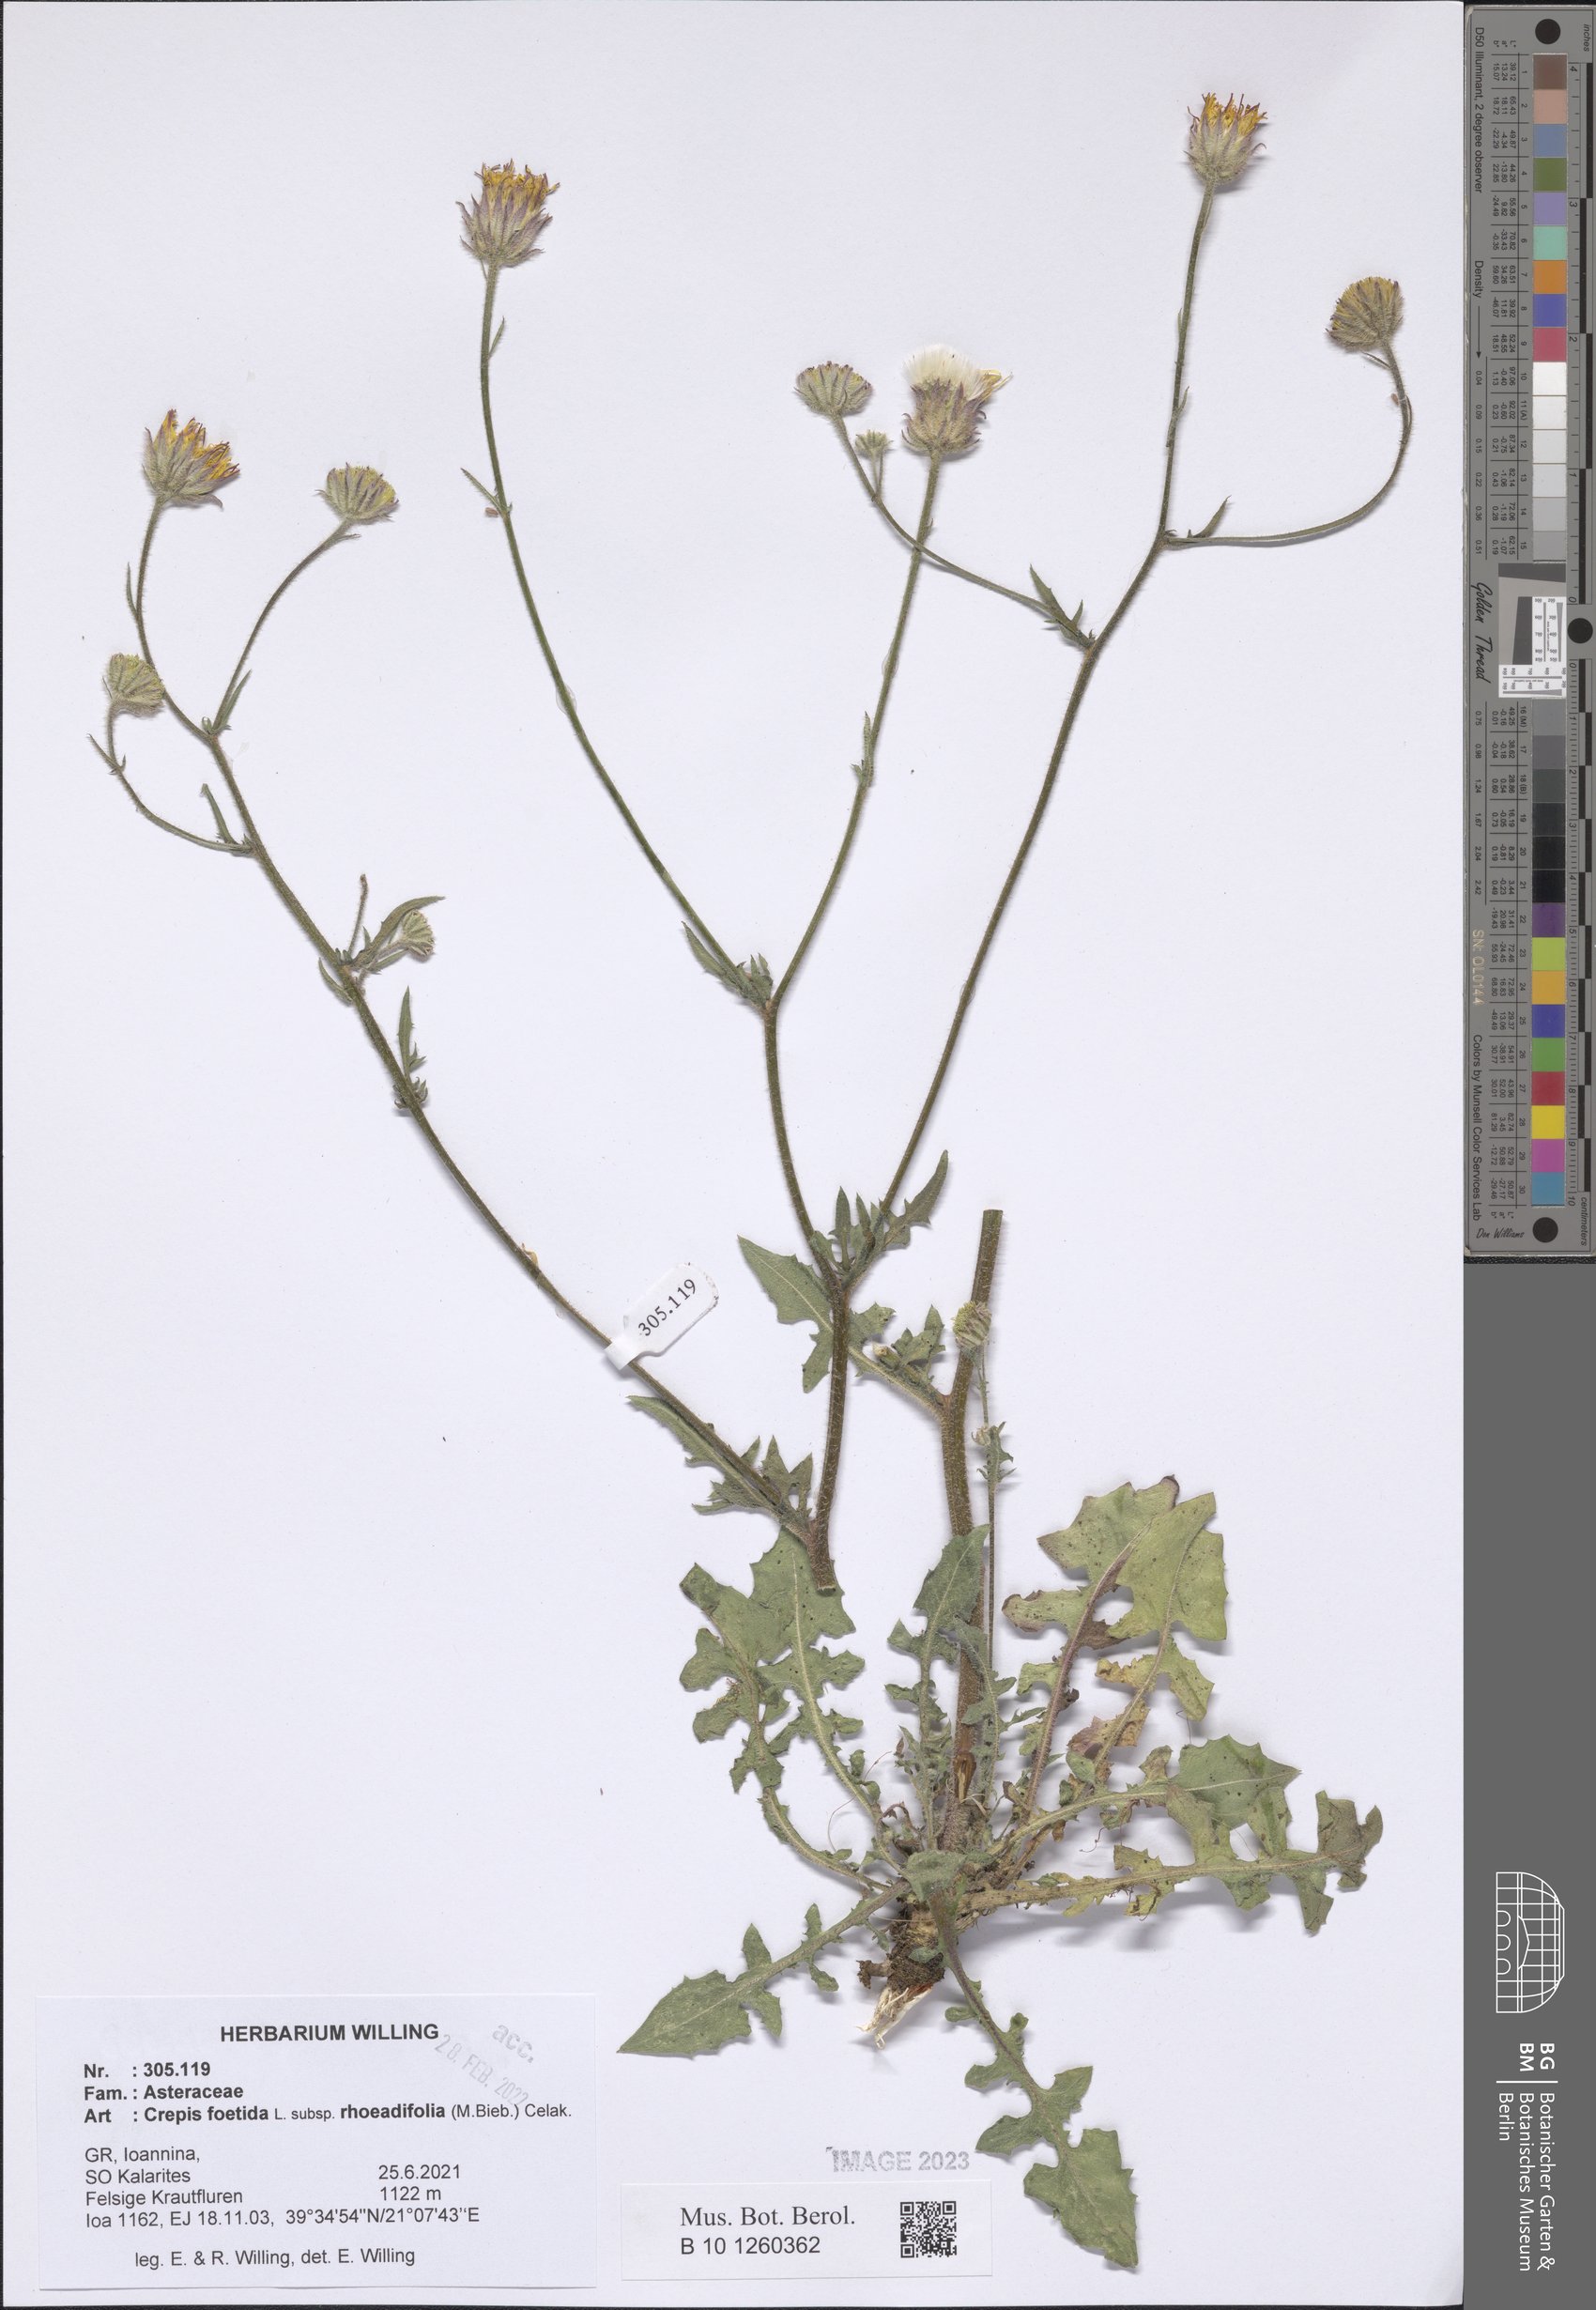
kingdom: Plantae
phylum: Tracheophyta
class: Magnoliopsida
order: Asterales
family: Asteraceae
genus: Crepis
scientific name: Crepis foetida
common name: Stinking hawk's-beard
